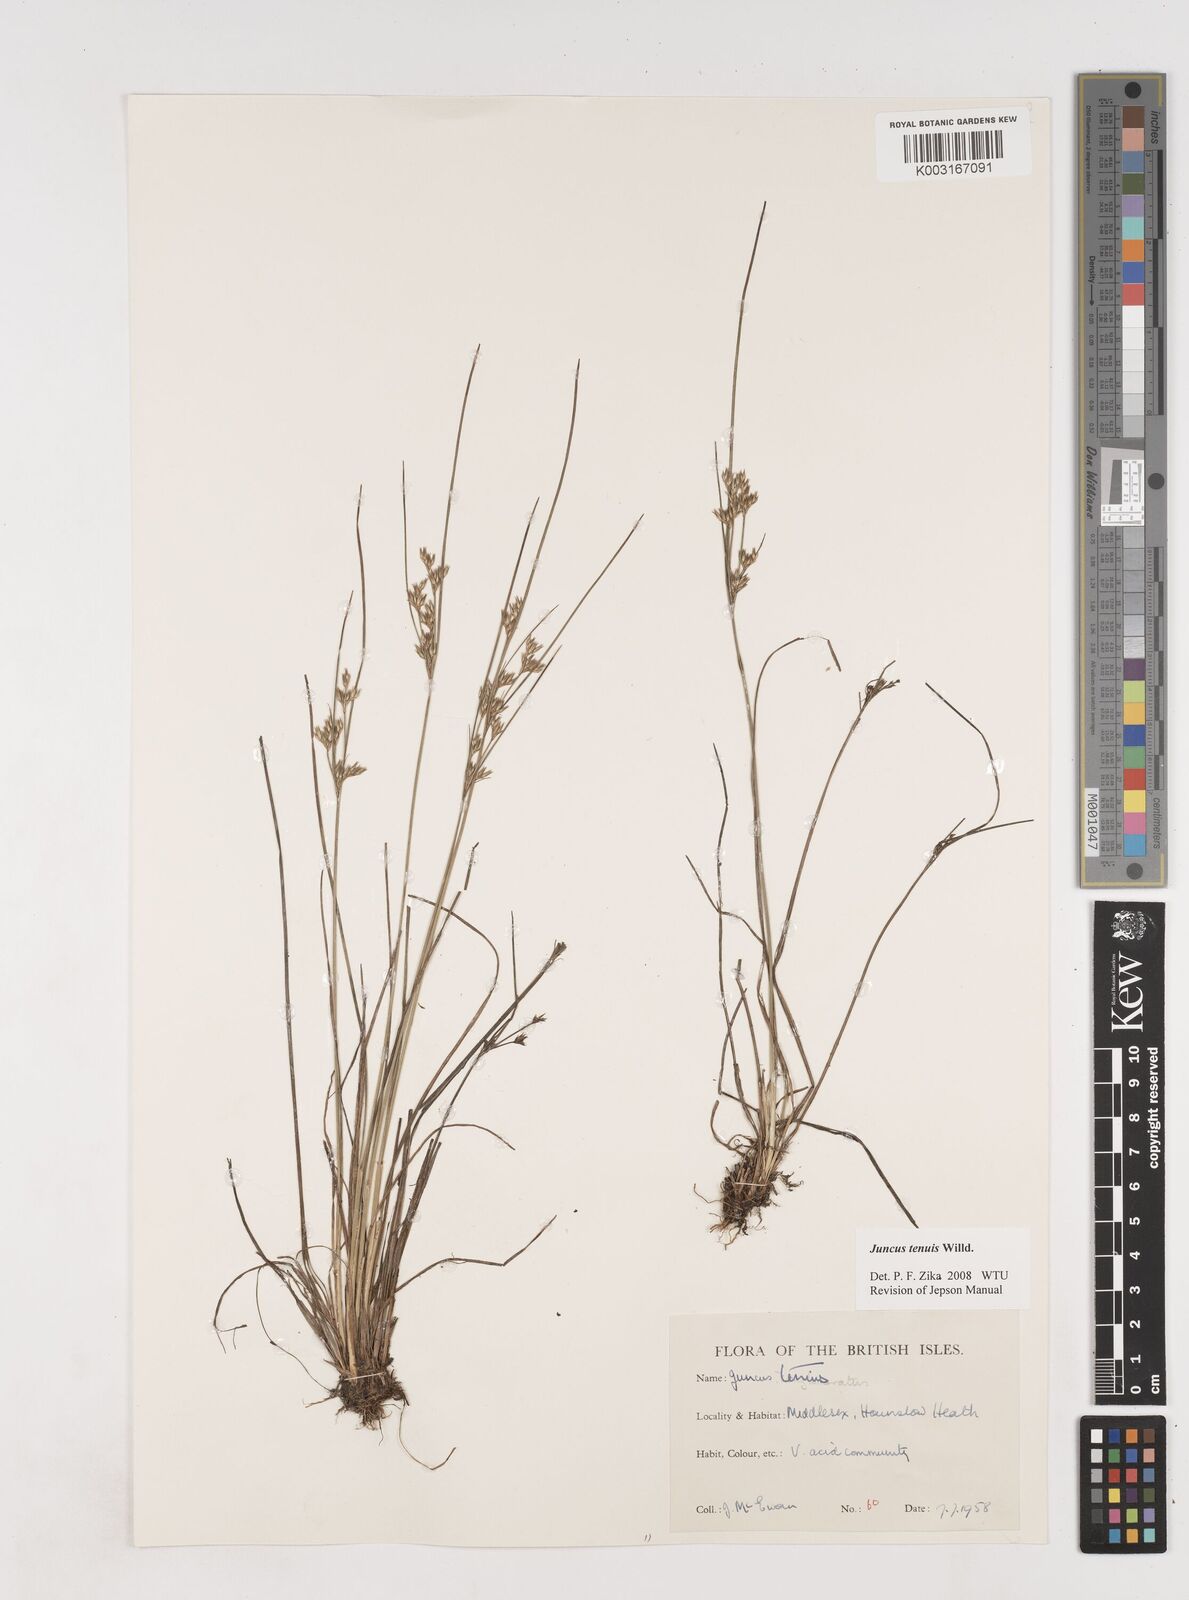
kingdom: Plantae
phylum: Tracheophyta
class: Liliopsida
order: Poales
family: Juncaceae
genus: Juncus
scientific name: Juncus tenuis
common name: Slender rush
